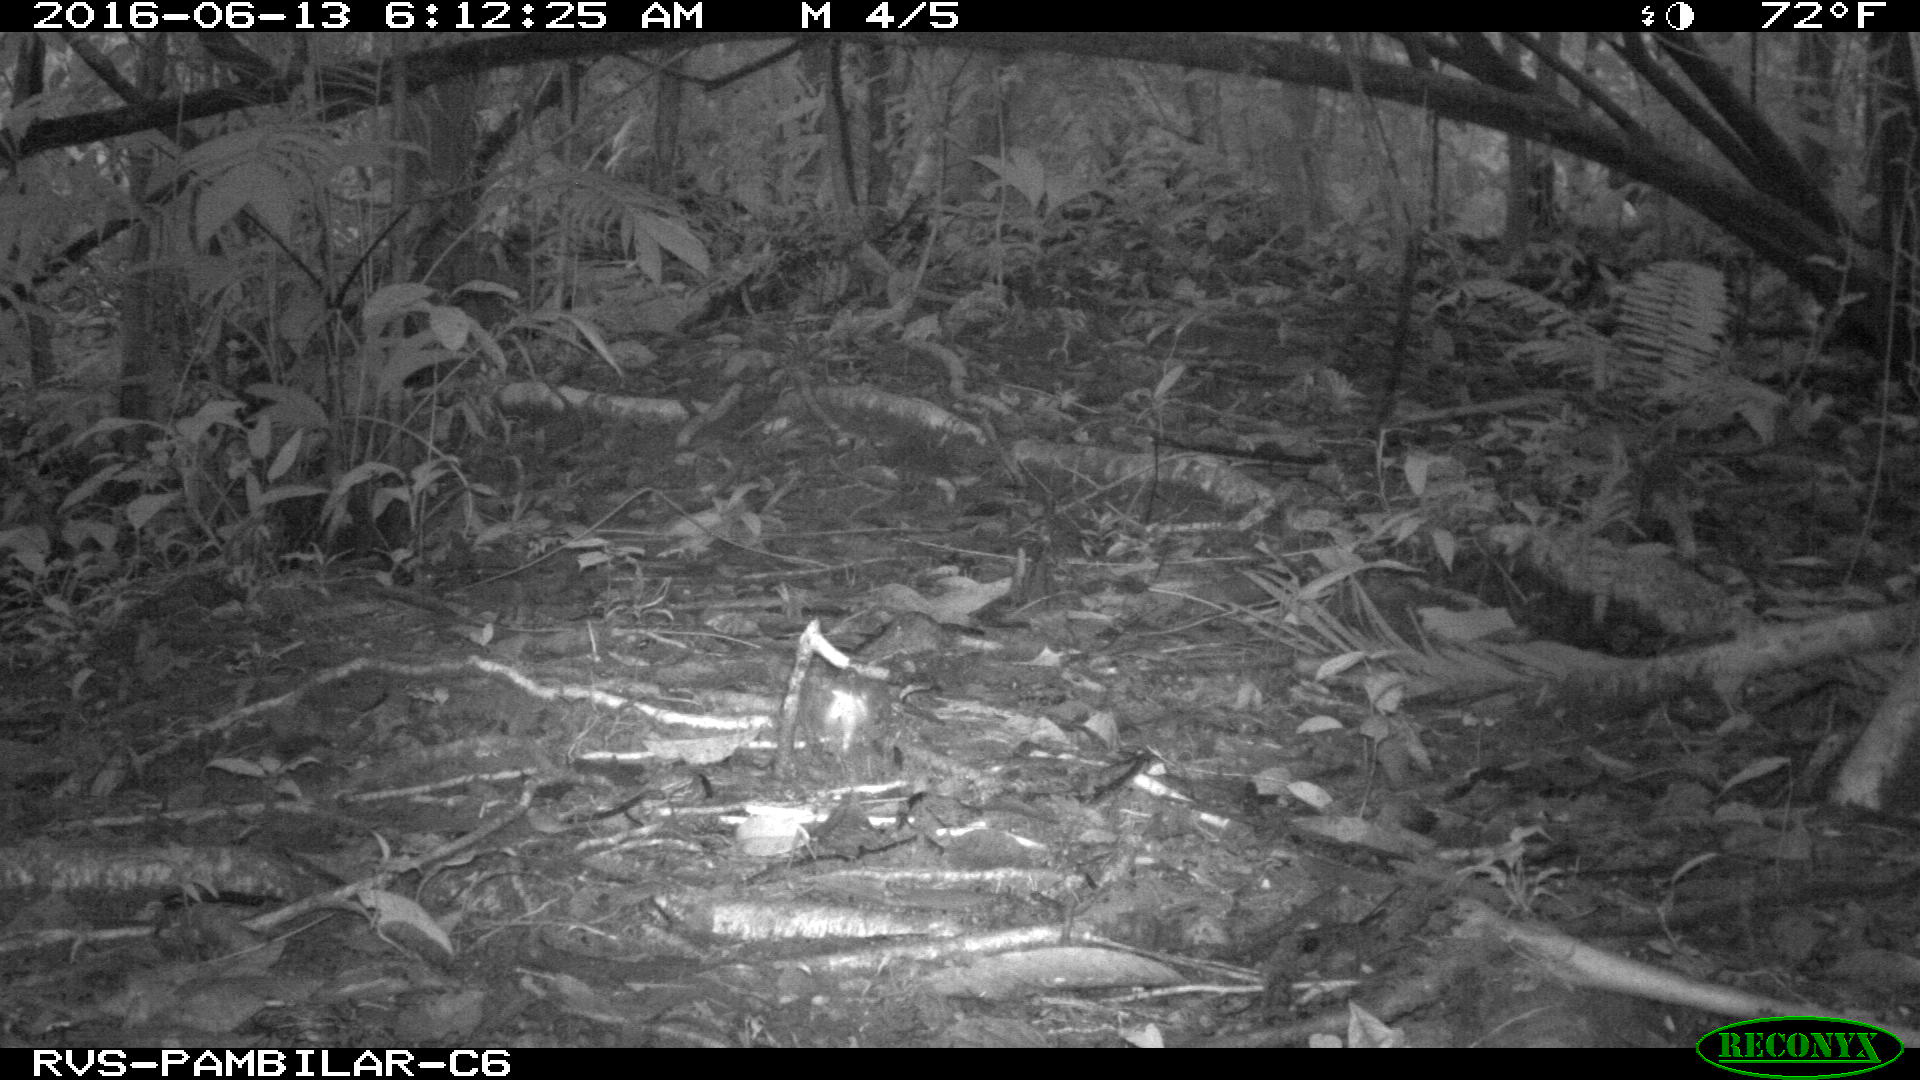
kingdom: Animalia
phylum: Chordata
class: Mammalia
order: Rodentia
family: Dasyproctidae
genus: Dasyprocta
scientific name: Dasyprocta punctata
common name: Central american agouti
